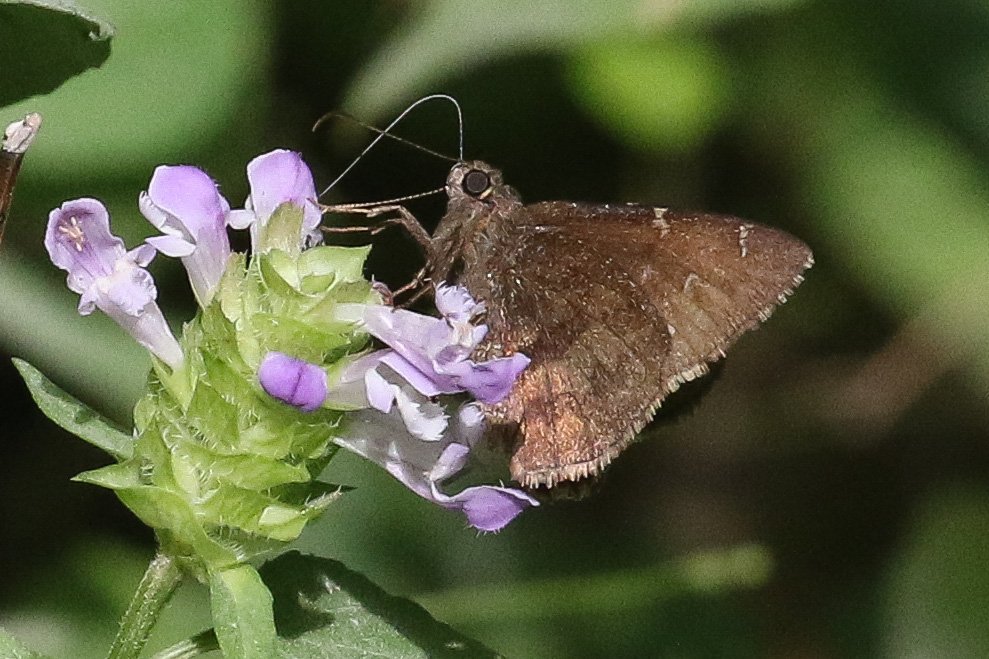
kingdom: Animalia
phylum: Arthropoda
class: Insecta
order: Lepidoptera
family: Hesperiidae
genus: Autochton
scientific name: Autochton
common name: Northern Cloudywing
